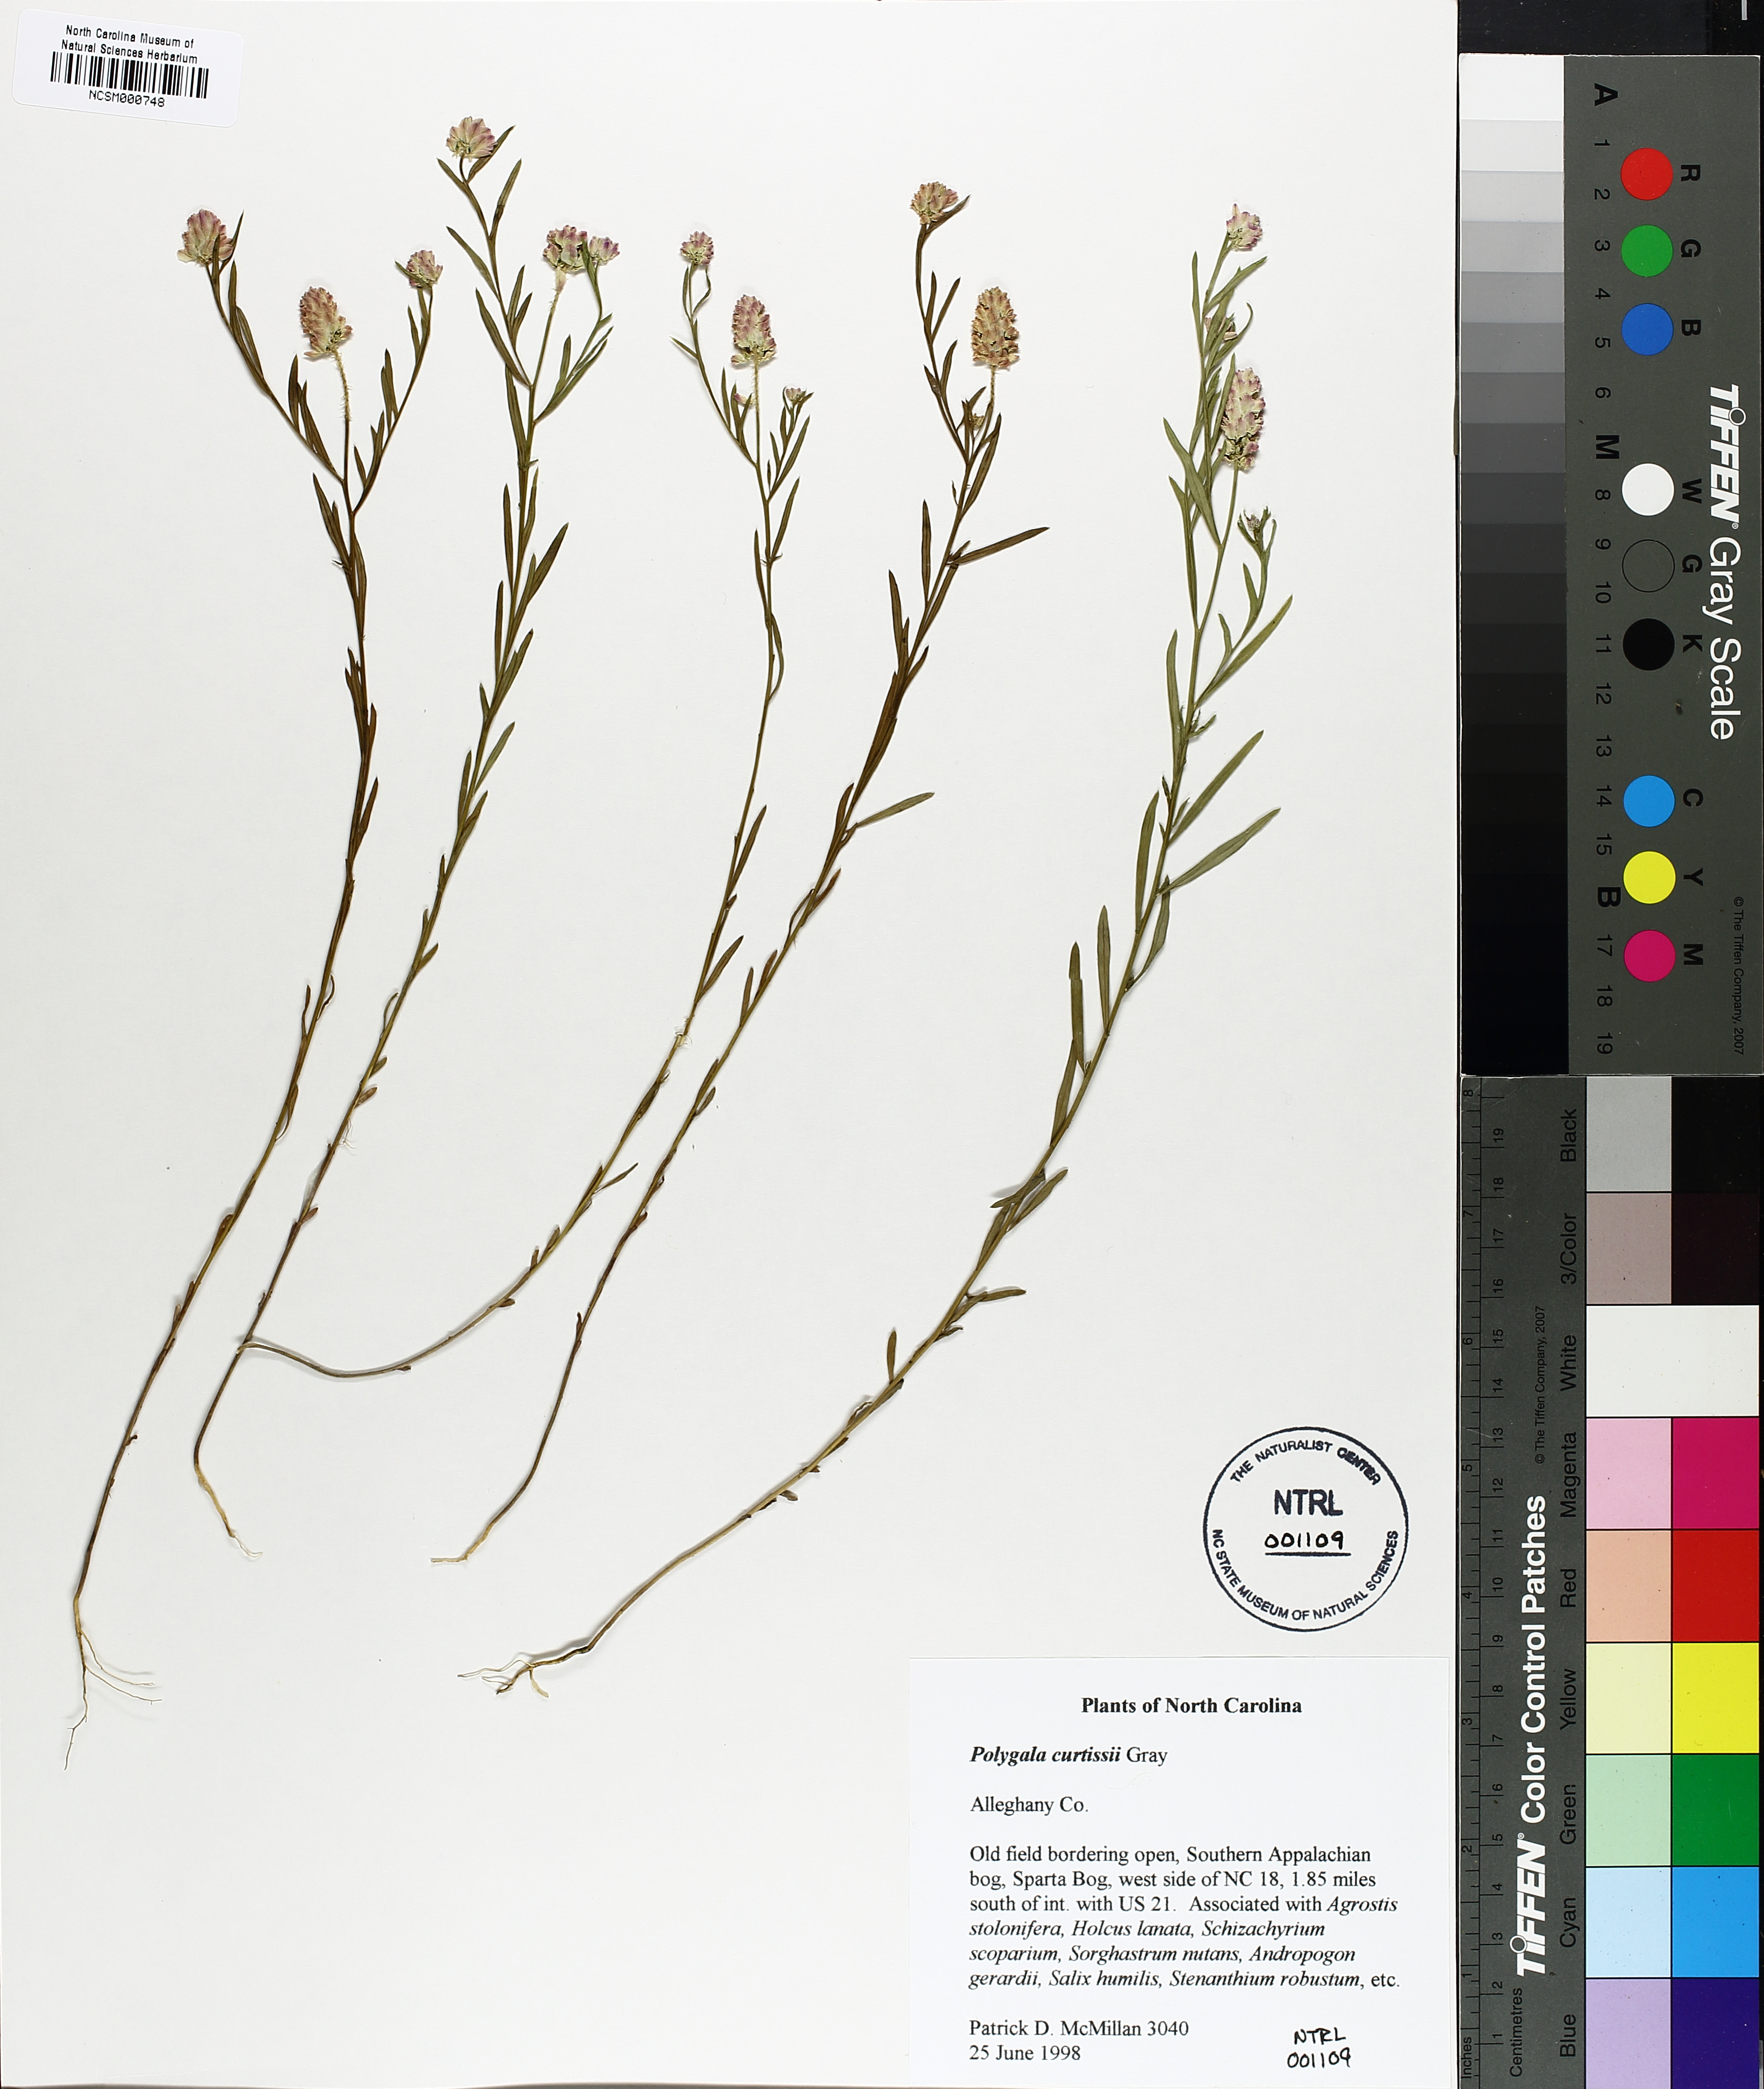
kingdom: Plantae
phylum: Tracheophyta
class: Magnoliopsida
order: Fabales
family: Polygalaceae
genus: Polygala
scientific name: Polygala curtissii
